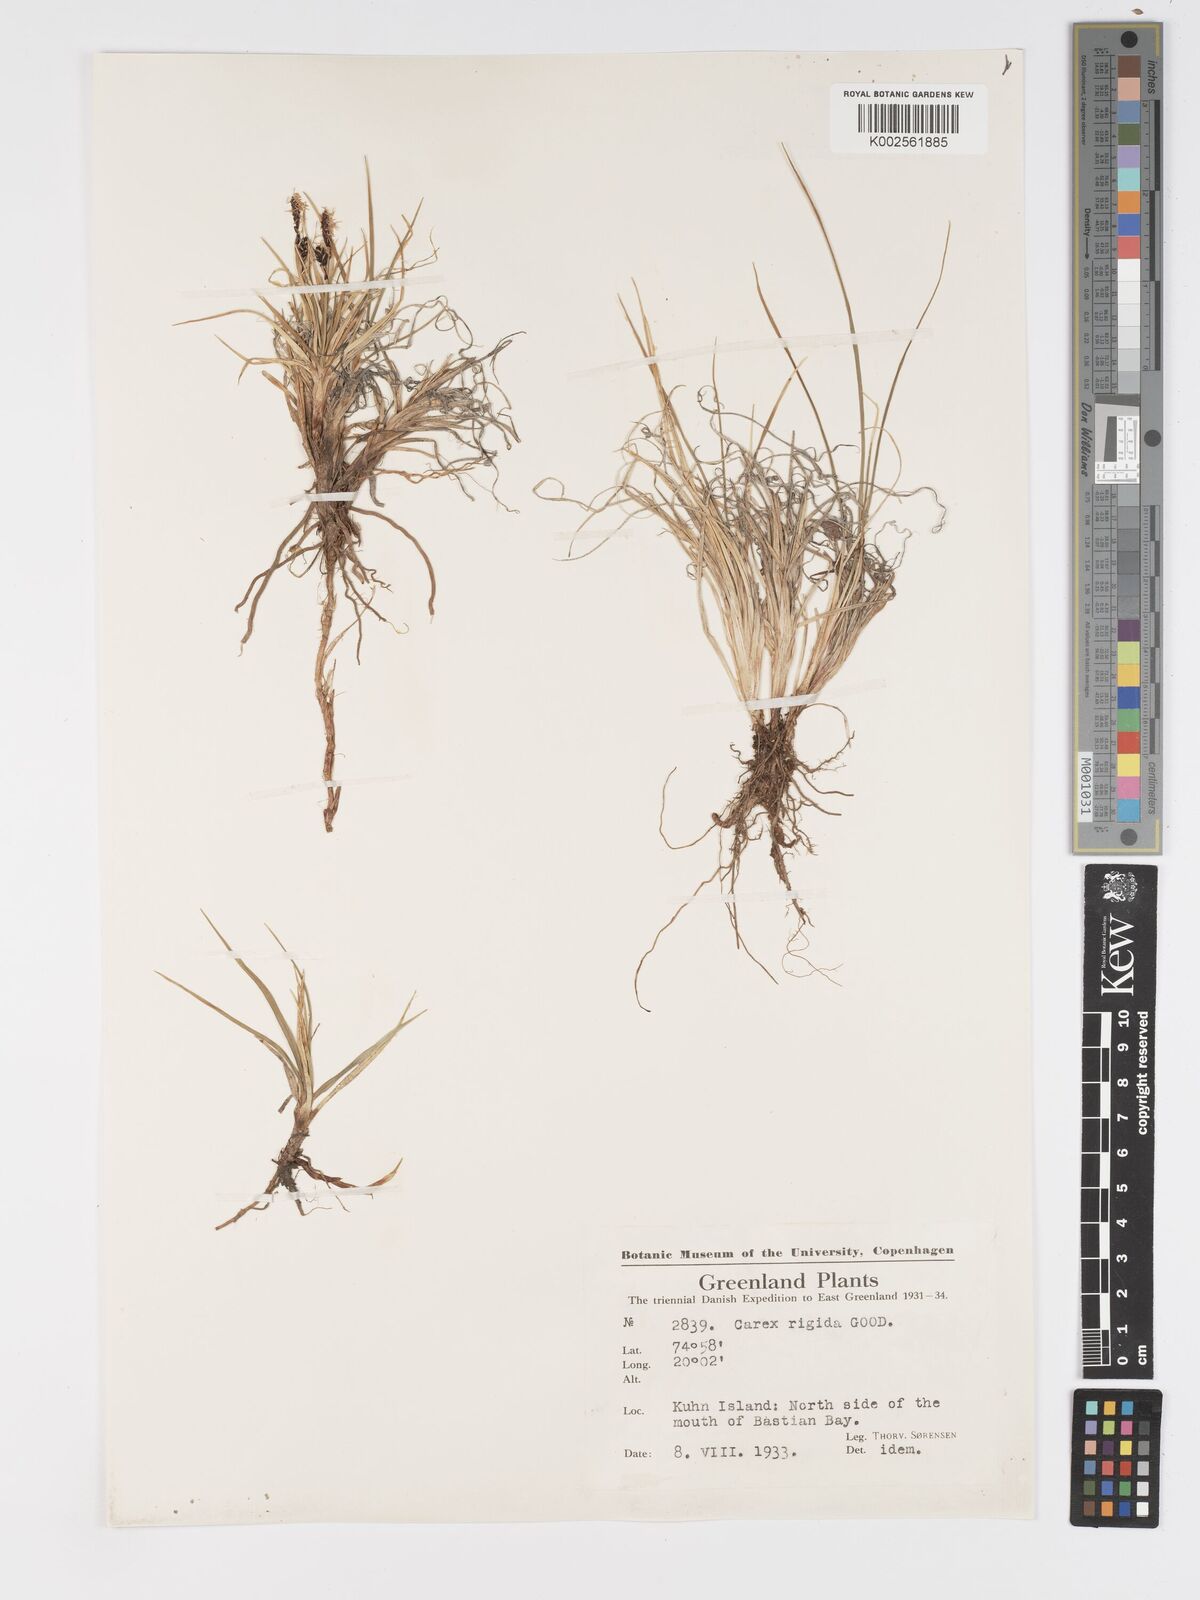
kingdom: Plantae
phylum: Tracheophyta
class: Liliopsida
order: Poales
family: Cyperaceae
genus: Carex
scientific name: Carex bigelowii
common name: Stiff sedge
